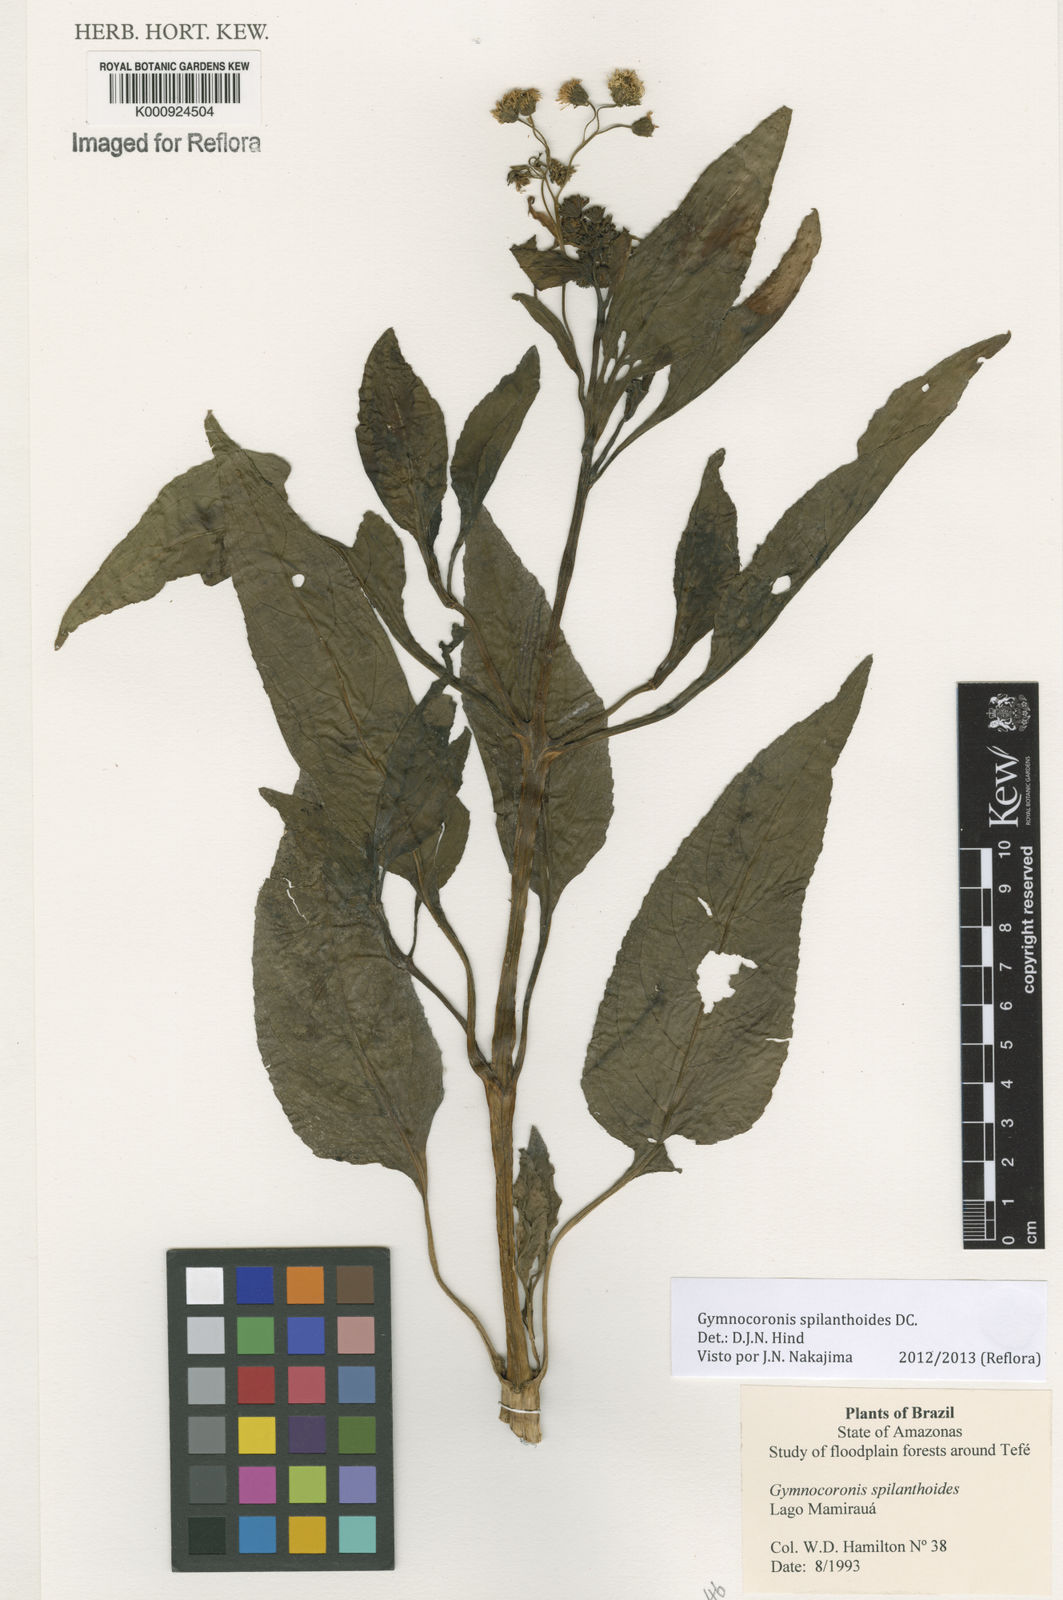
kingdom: Plantae
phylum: Tracheophyta
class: Magnoliopsida
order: Asterales
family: Asteraceae
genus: Gymnocoronis
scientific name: Gymnocoronis spilanthoides
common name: Senegal teaplant
